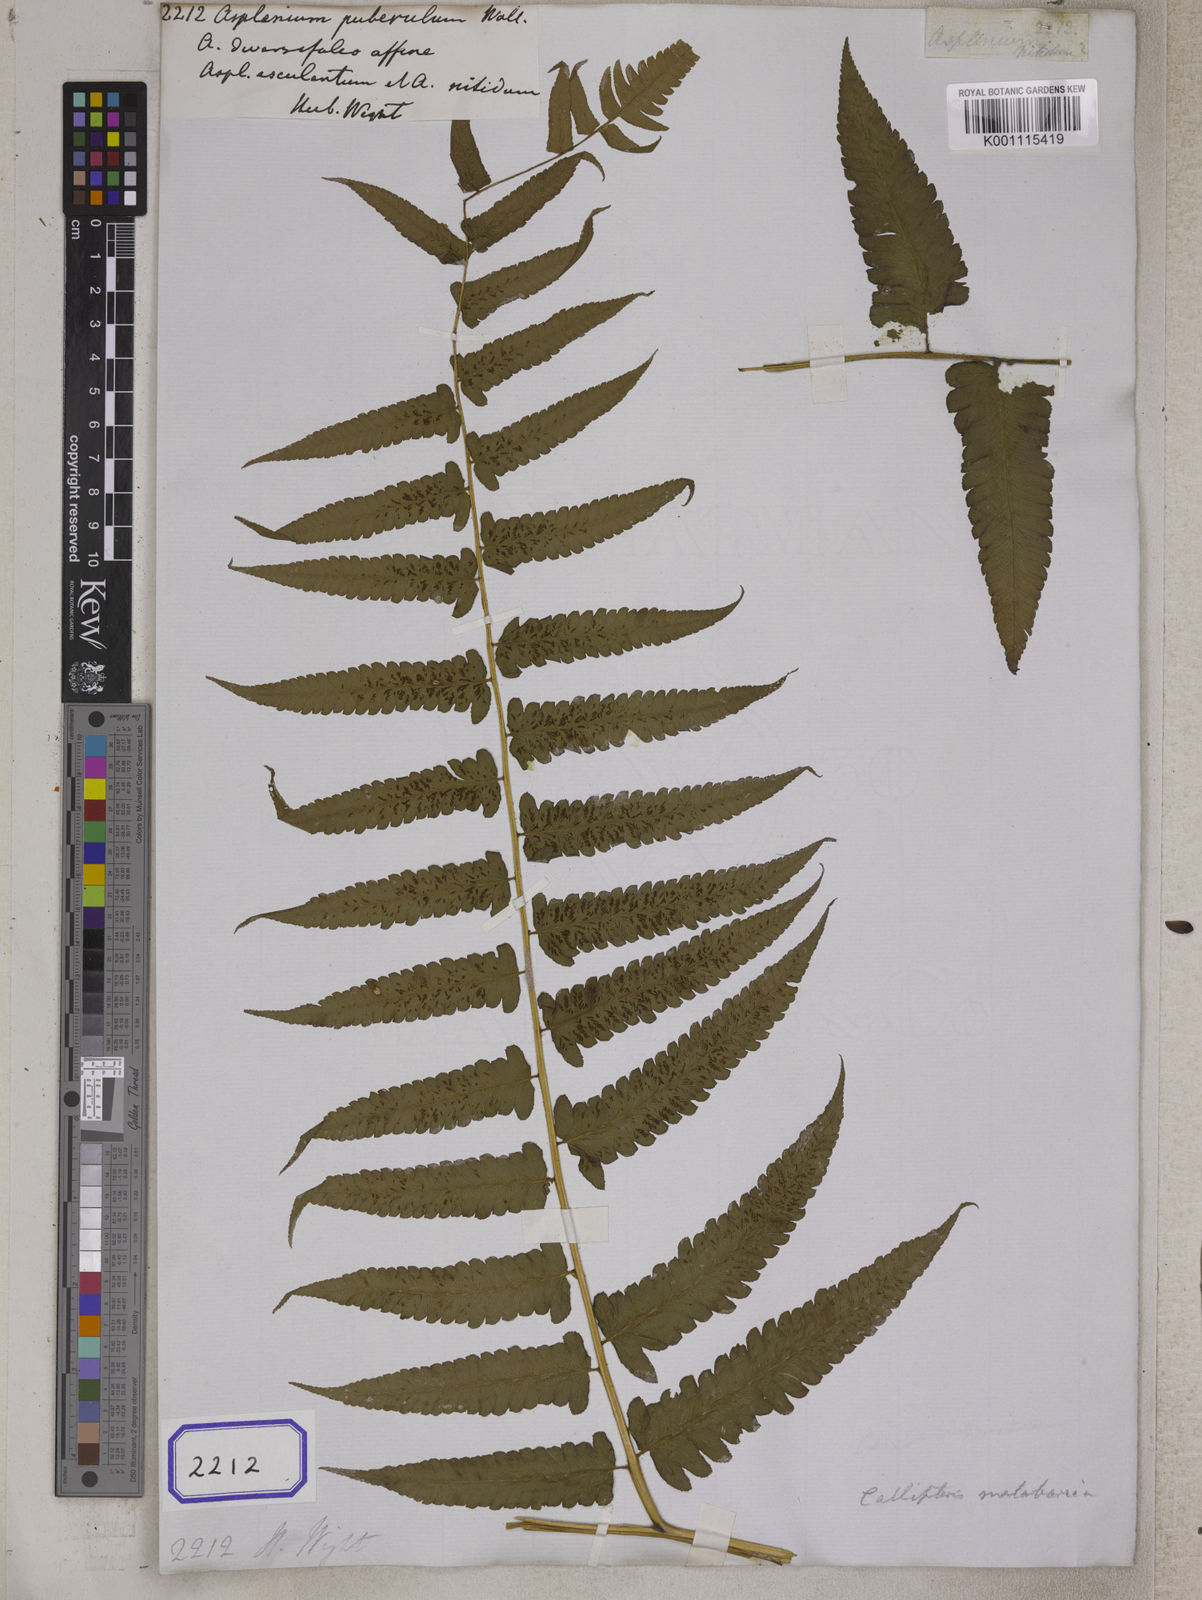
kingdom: Plantae
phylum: Tracheophyta
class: Polypodiopsida
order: Polypodiales
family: Athyriaceae
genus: Diplazium
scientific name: Diplazium esculentum
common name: Vegetable fern
